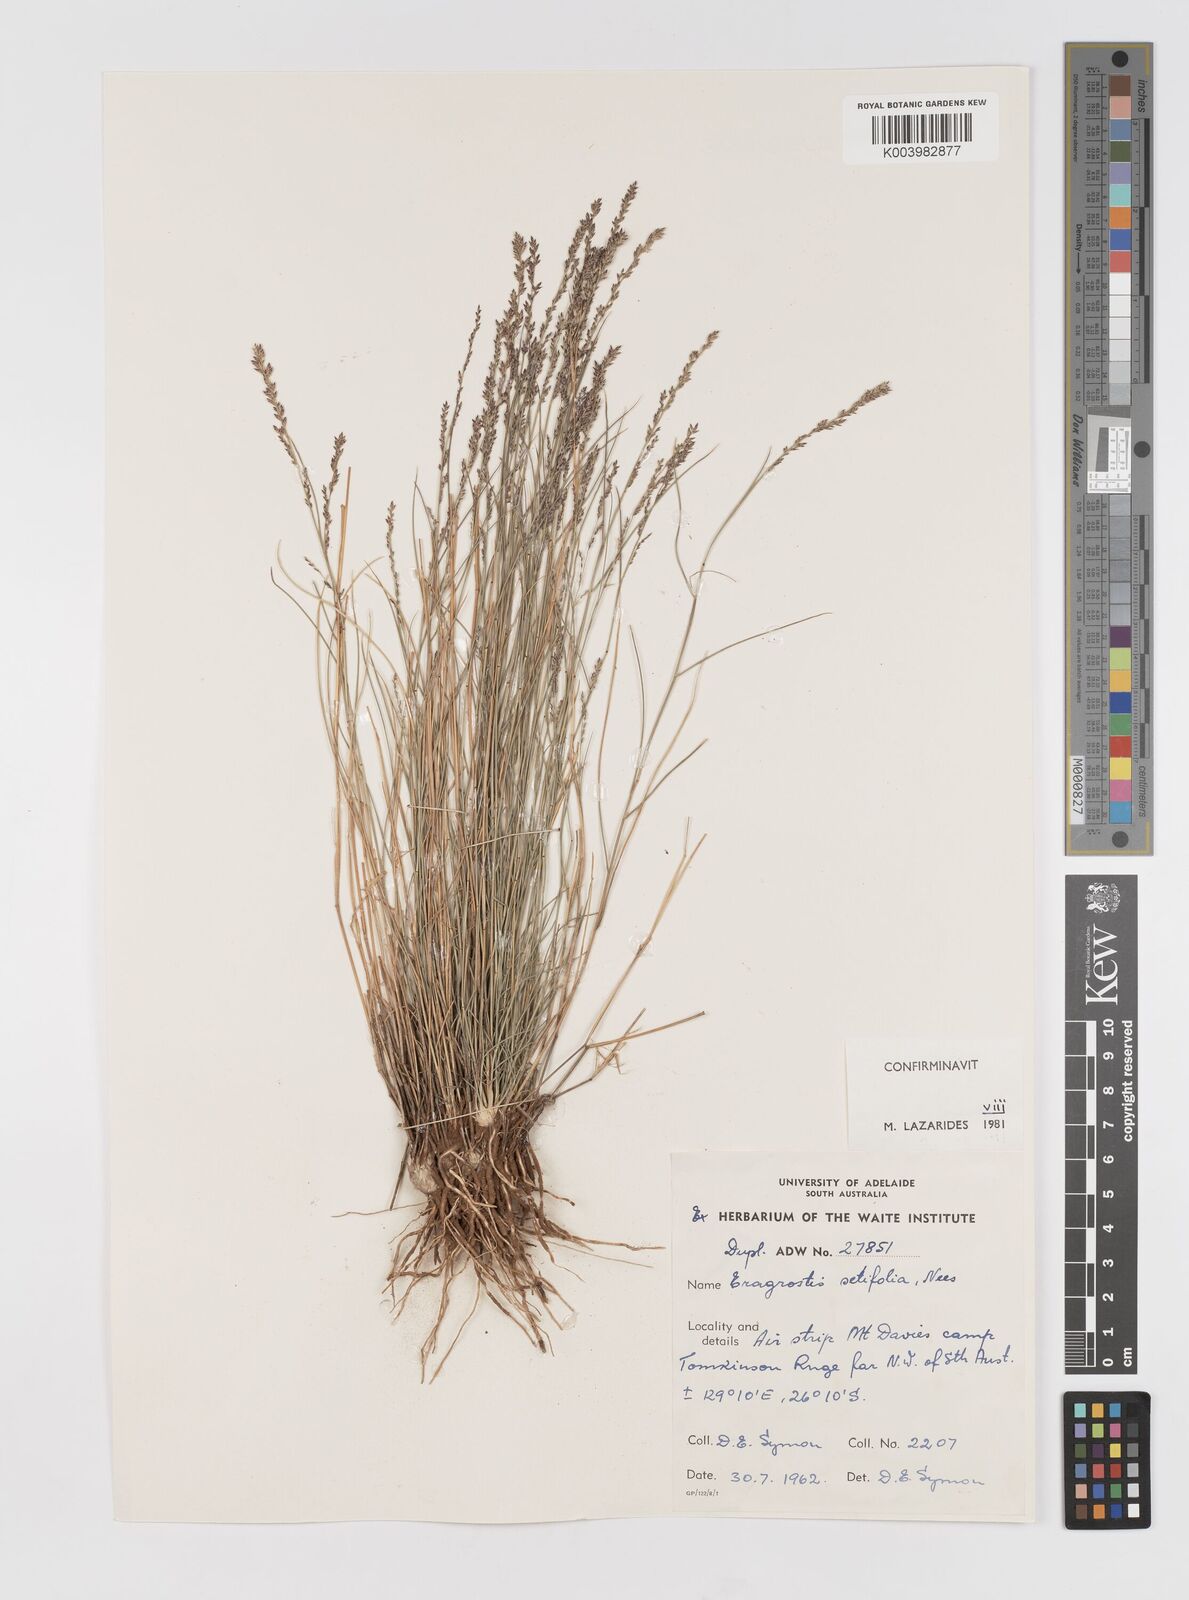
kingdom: Plantae
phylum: Tracheophyta
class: Liliopsida
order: Poales
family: Poaceae
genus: Eragrostis
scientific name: Eragrostis setifolia
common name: Bristleleaf lovegrass
